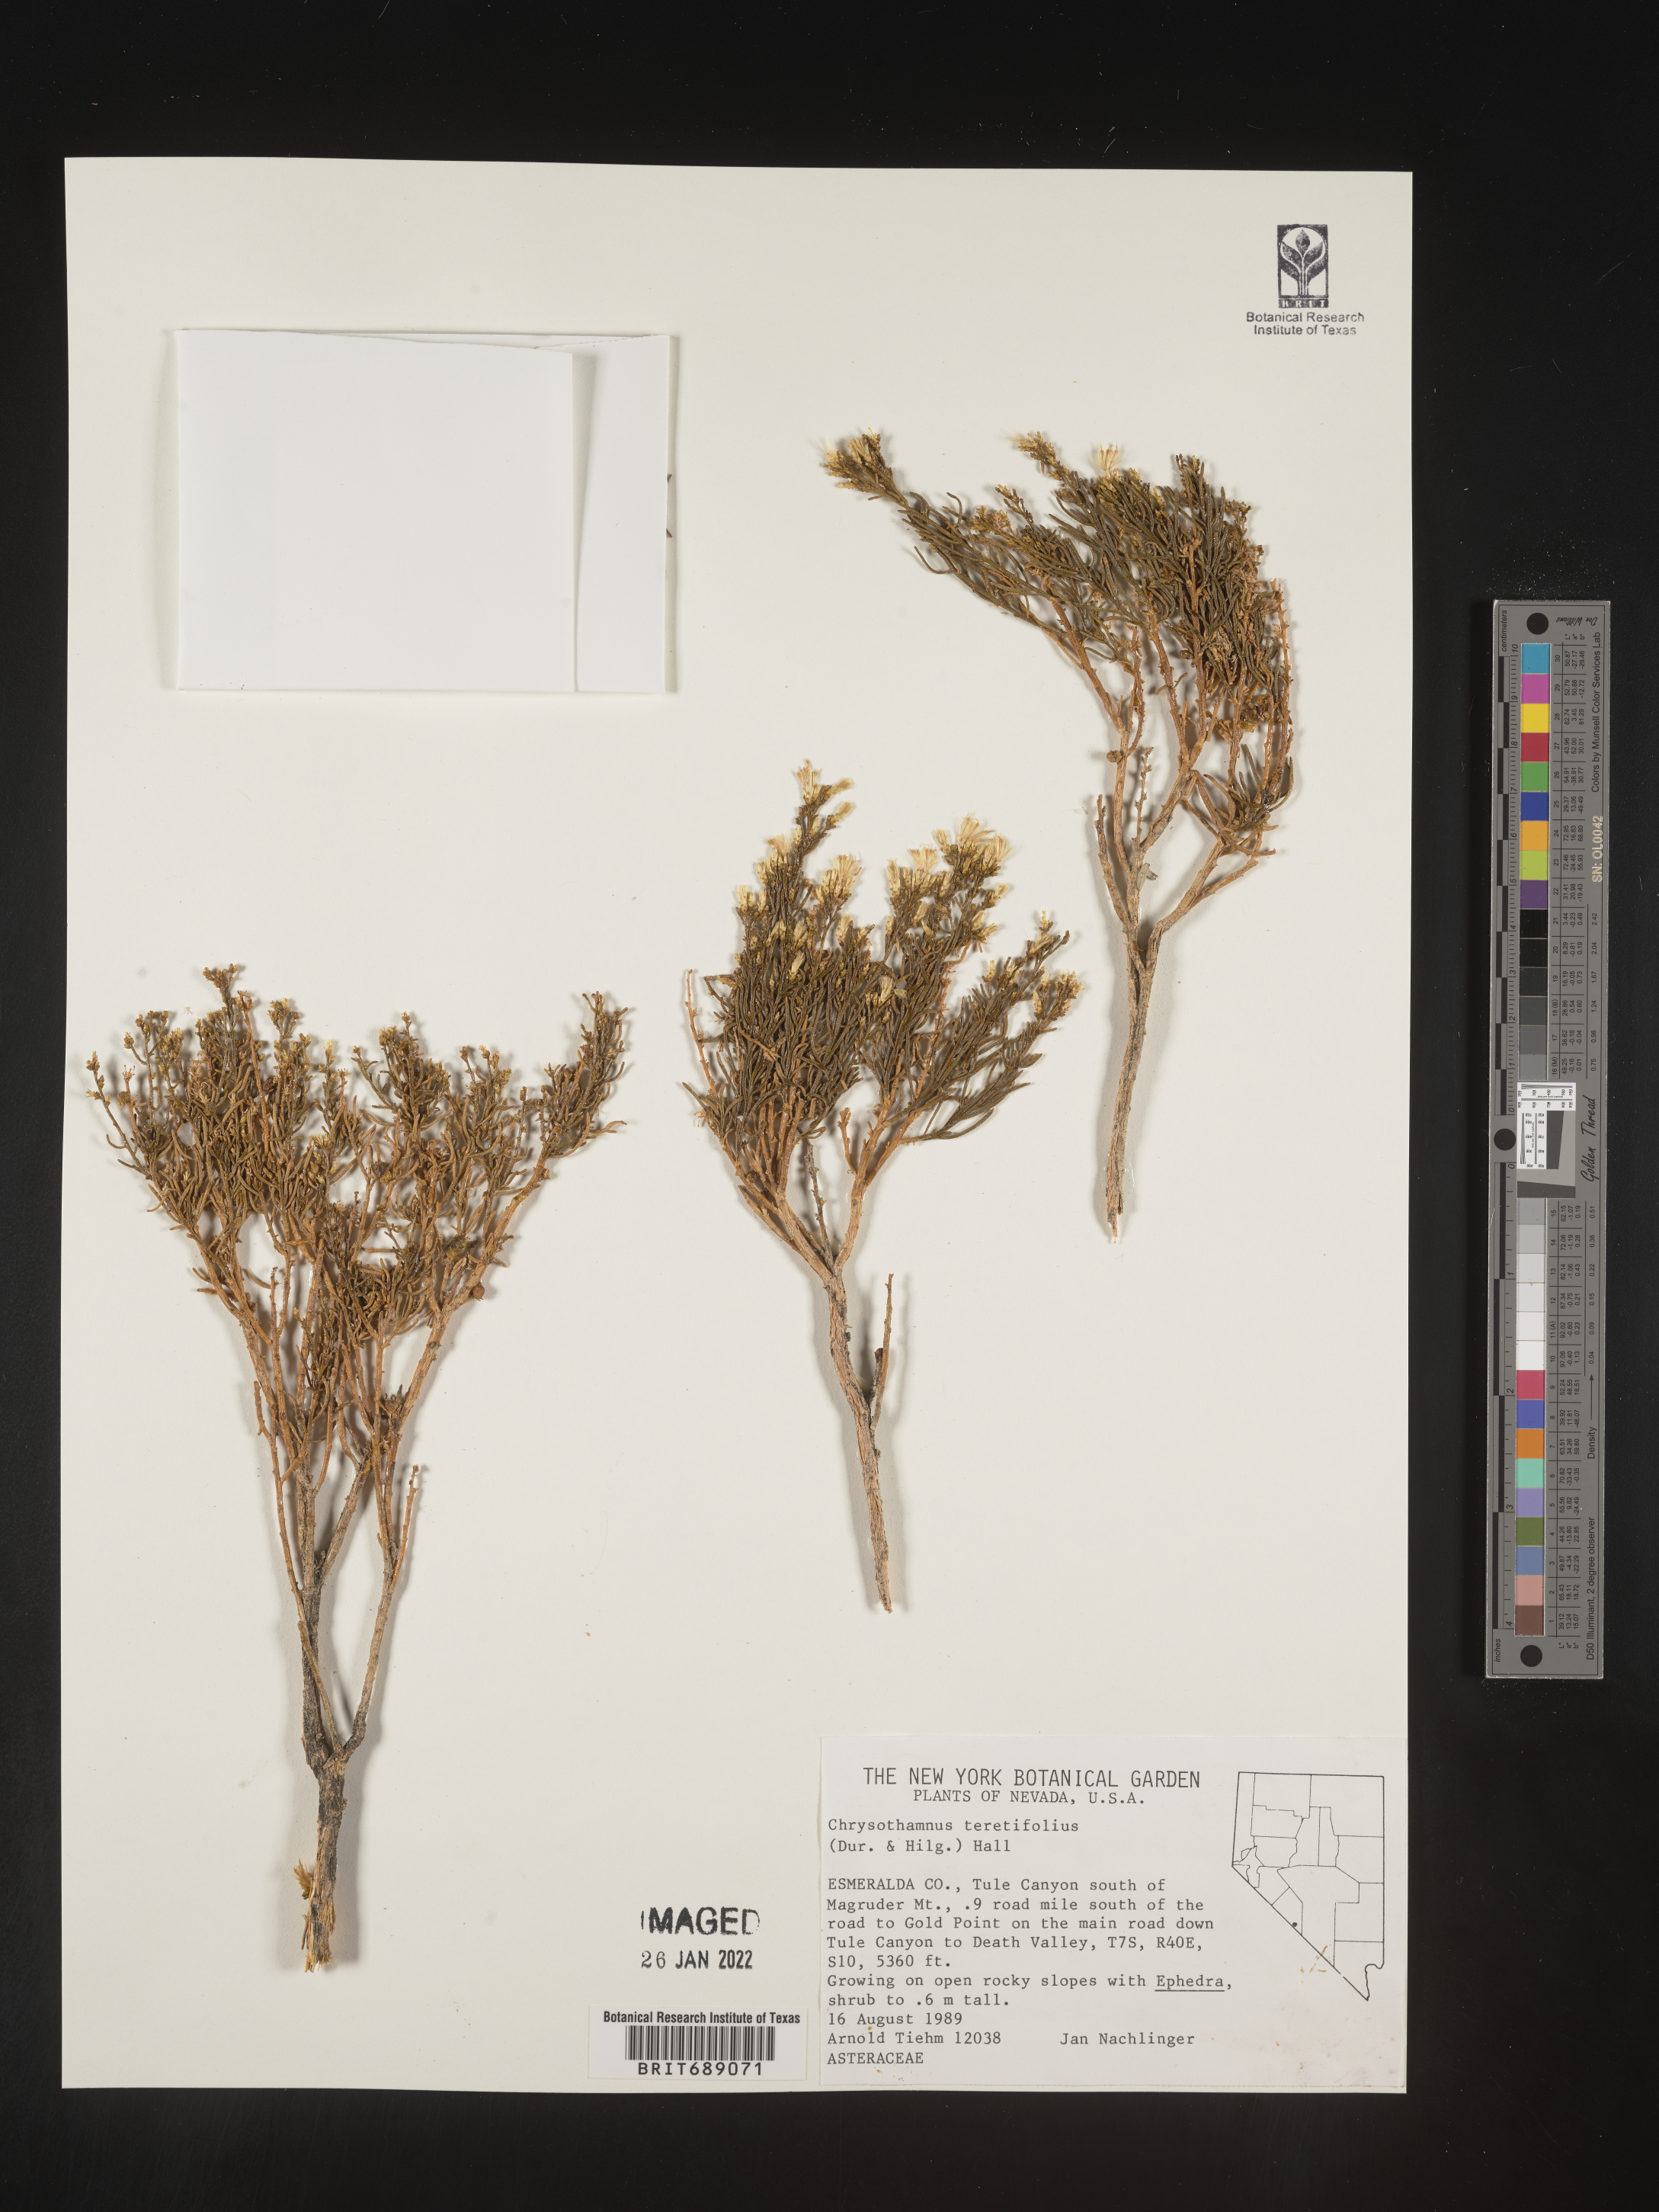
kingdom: Plantae
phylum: Tracheophyta
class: Magnoliopsida
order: Asterales
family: Asteraceae
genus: Ericameria
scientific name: Ericameria teretifolia
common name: Round-leaf rabbitbrush
